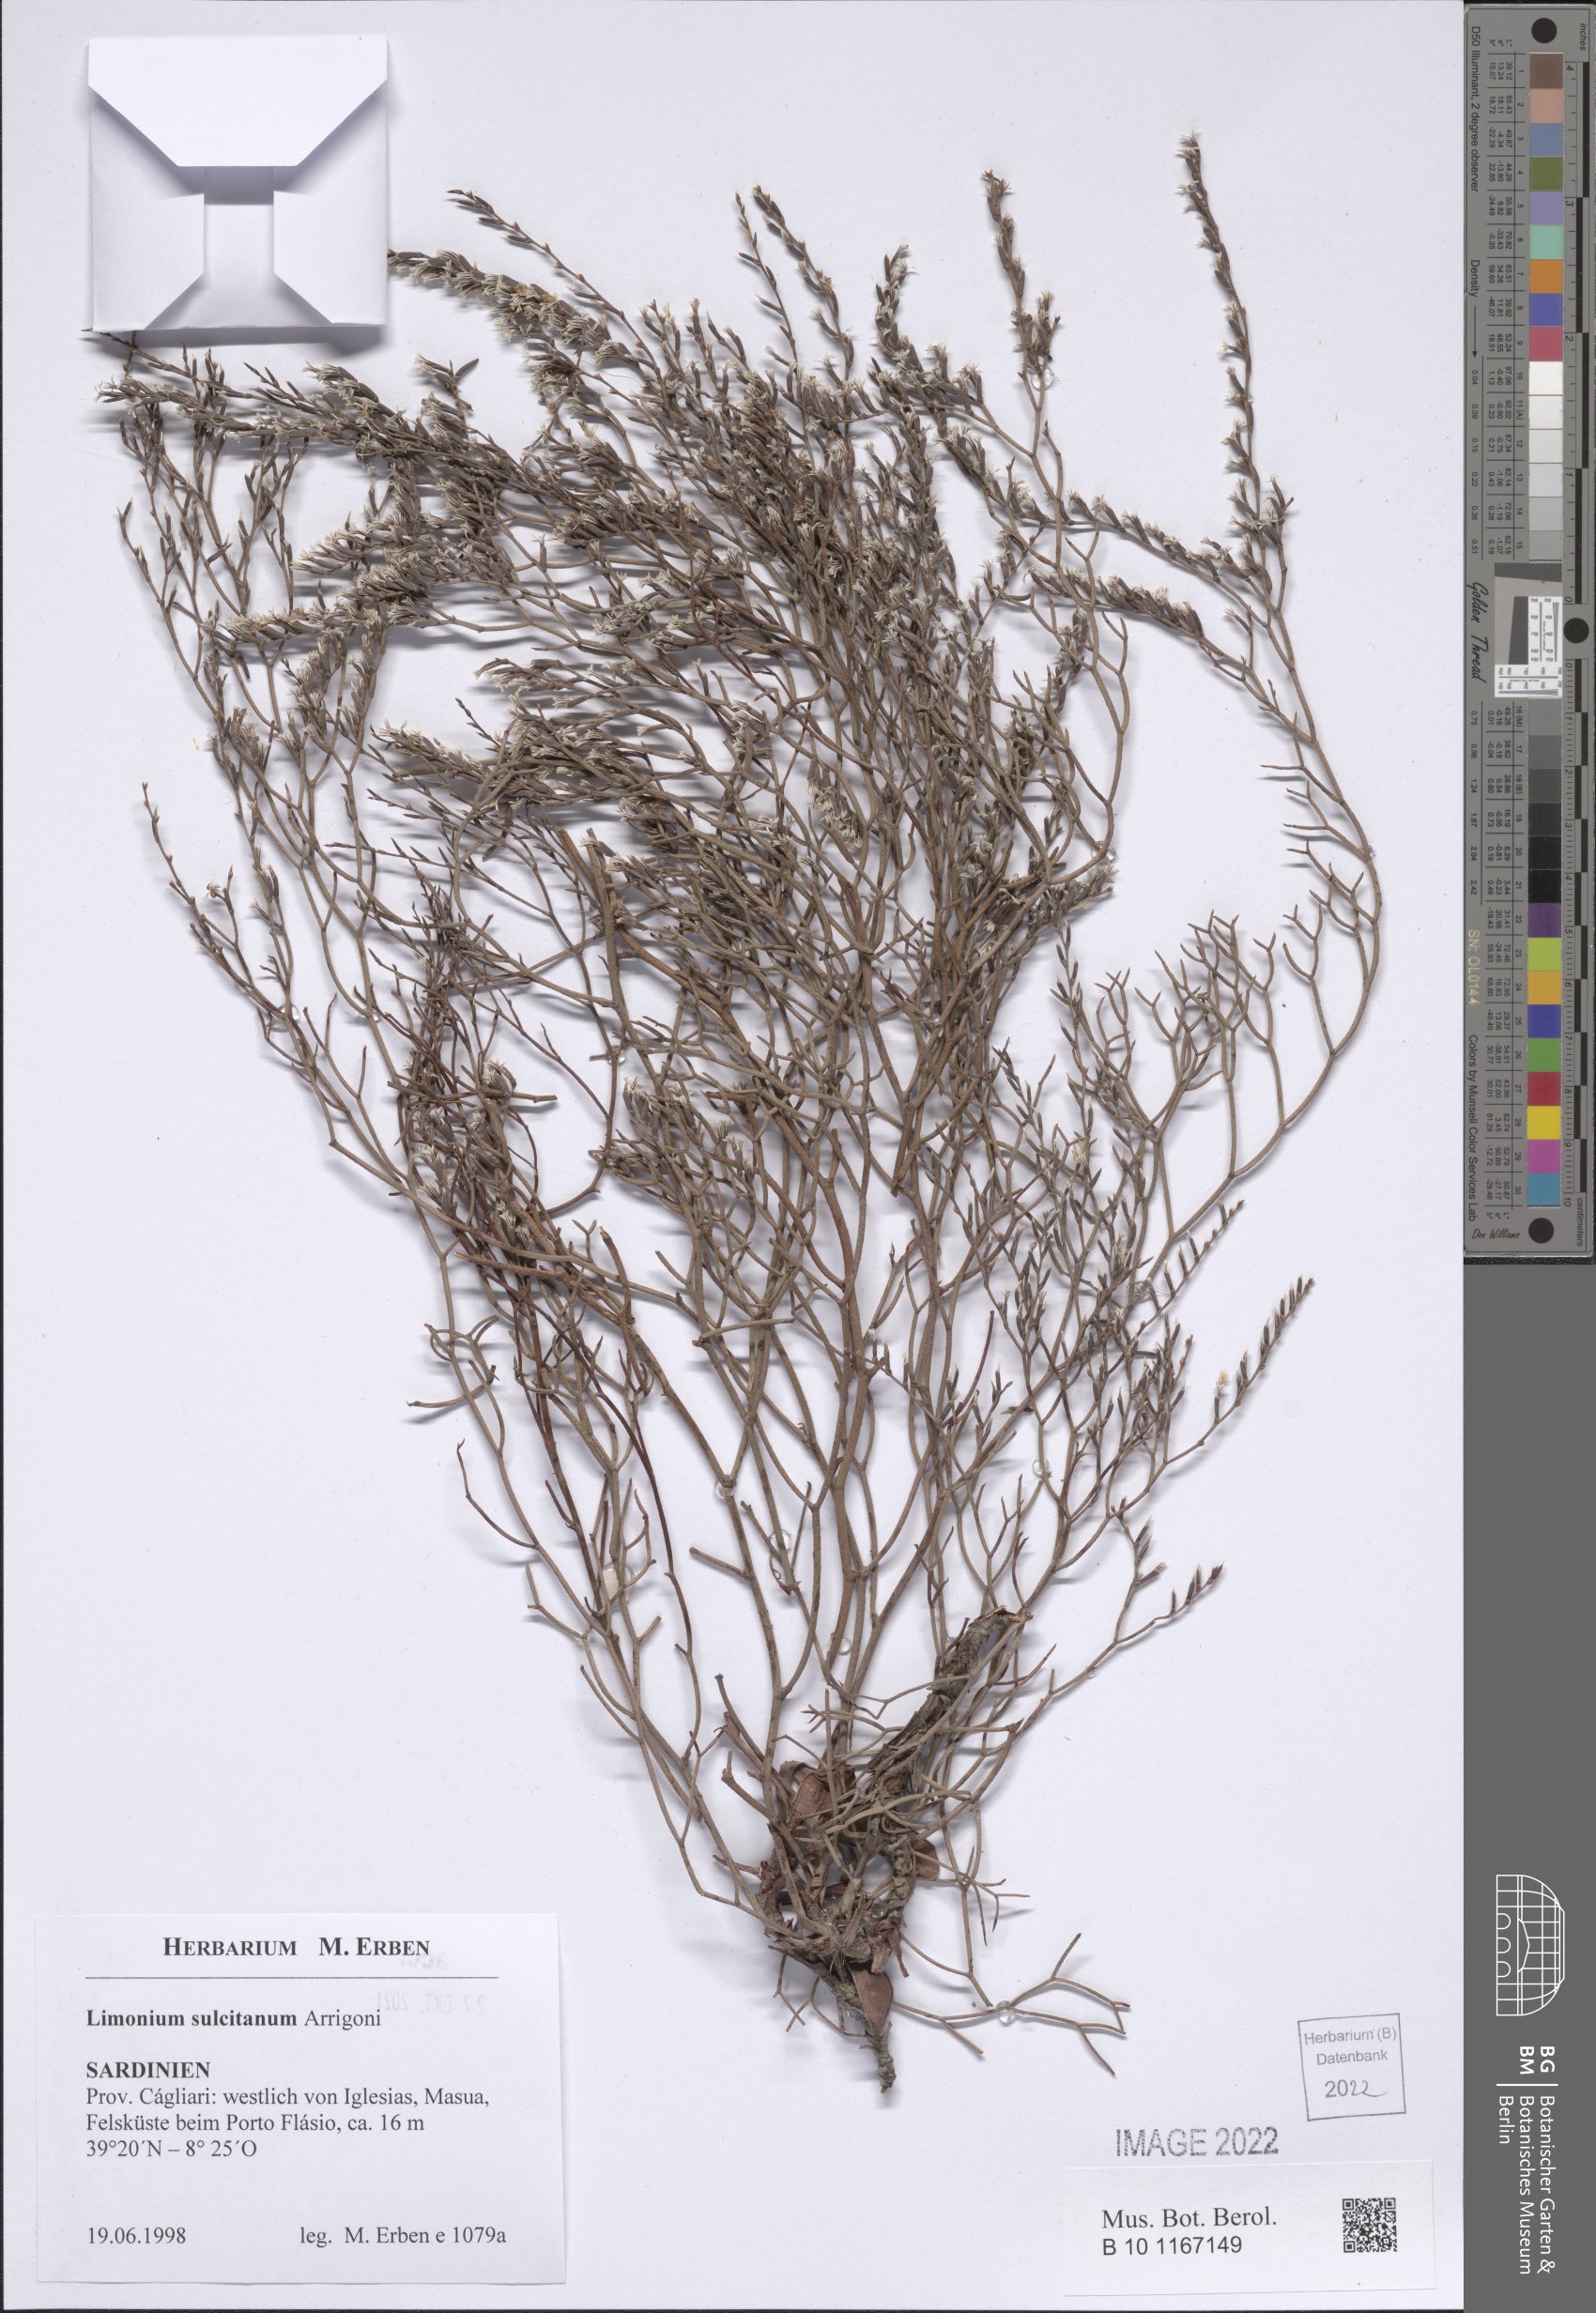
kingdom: Plantae
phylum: Tracheophyta
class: Magnoliopsida
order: Caryophyllales
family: Plumbaginaceae
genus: Limonium
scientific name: Limonium sulcitanum
